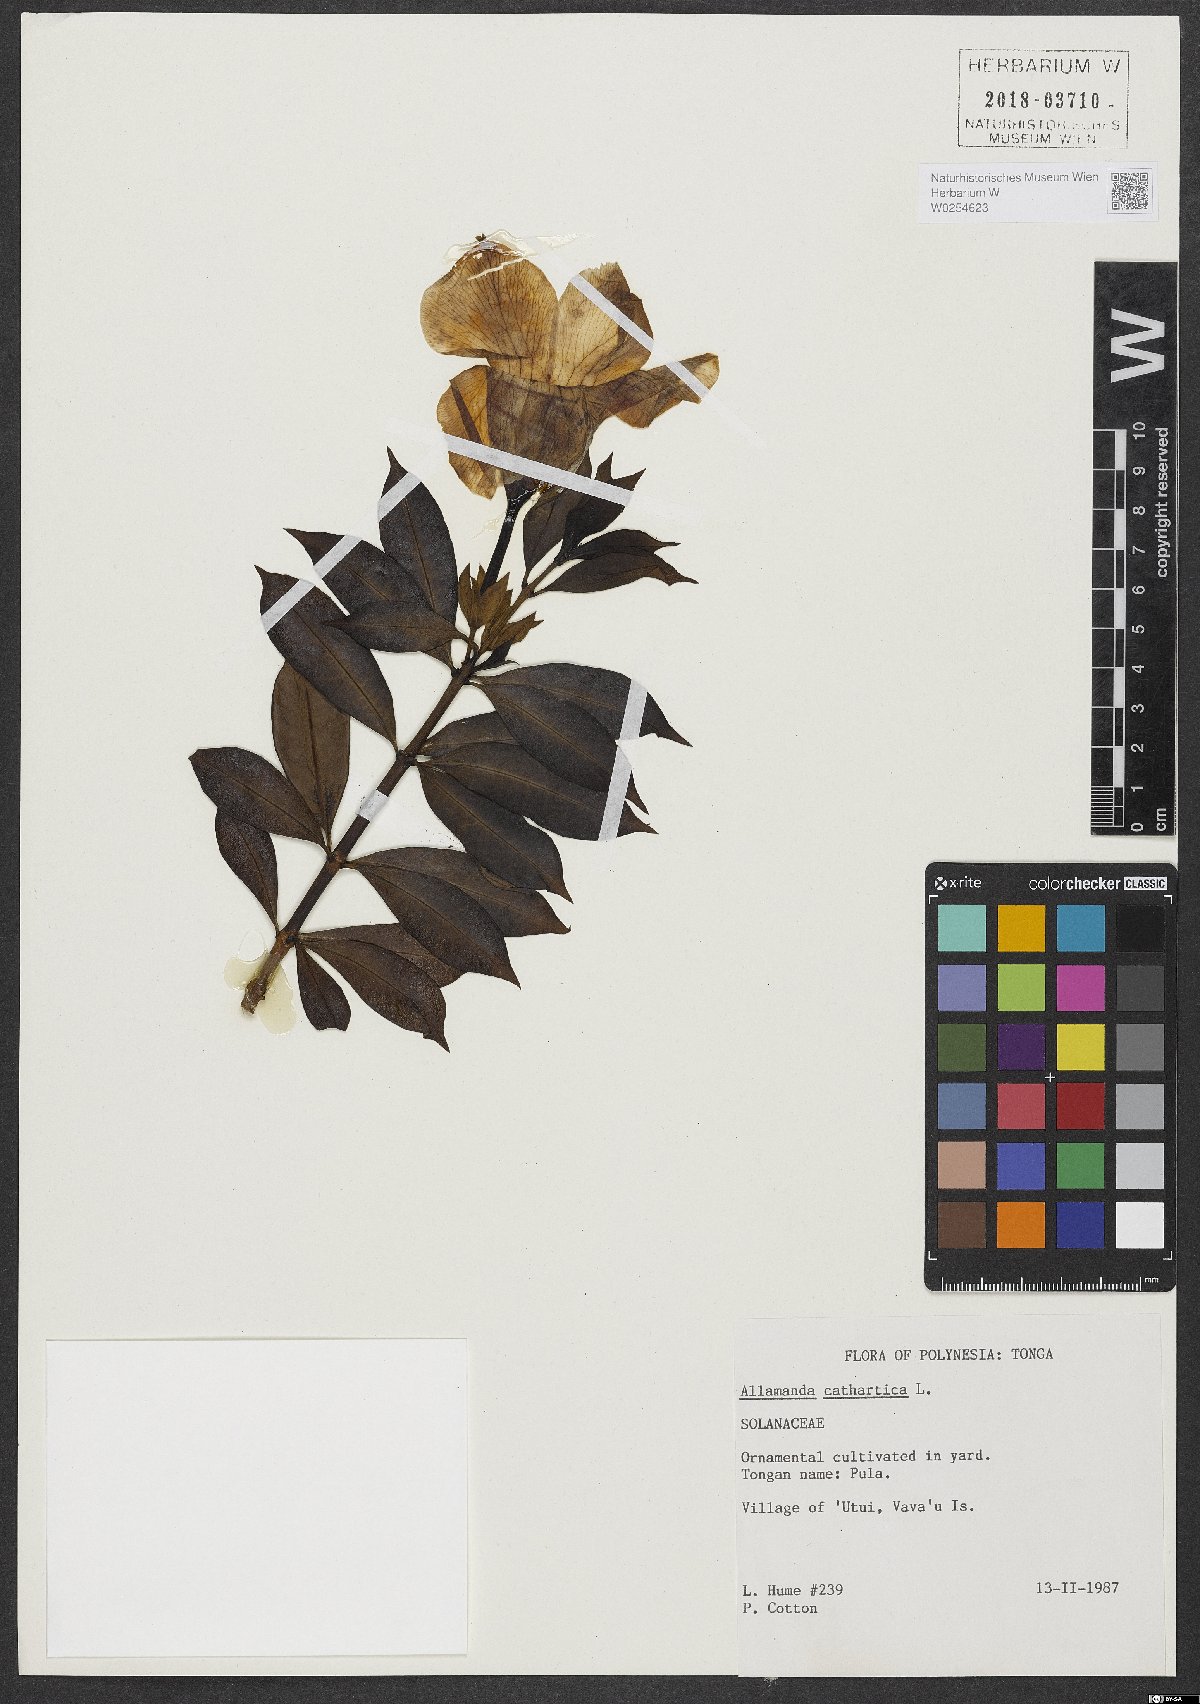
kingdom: Plantae
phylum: Tracheophyta
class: Magnoliopsida
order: Gentianales
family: Apocynaceae
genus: Allamanda
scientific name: Allamanda cathartica
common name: Golden trumpet
